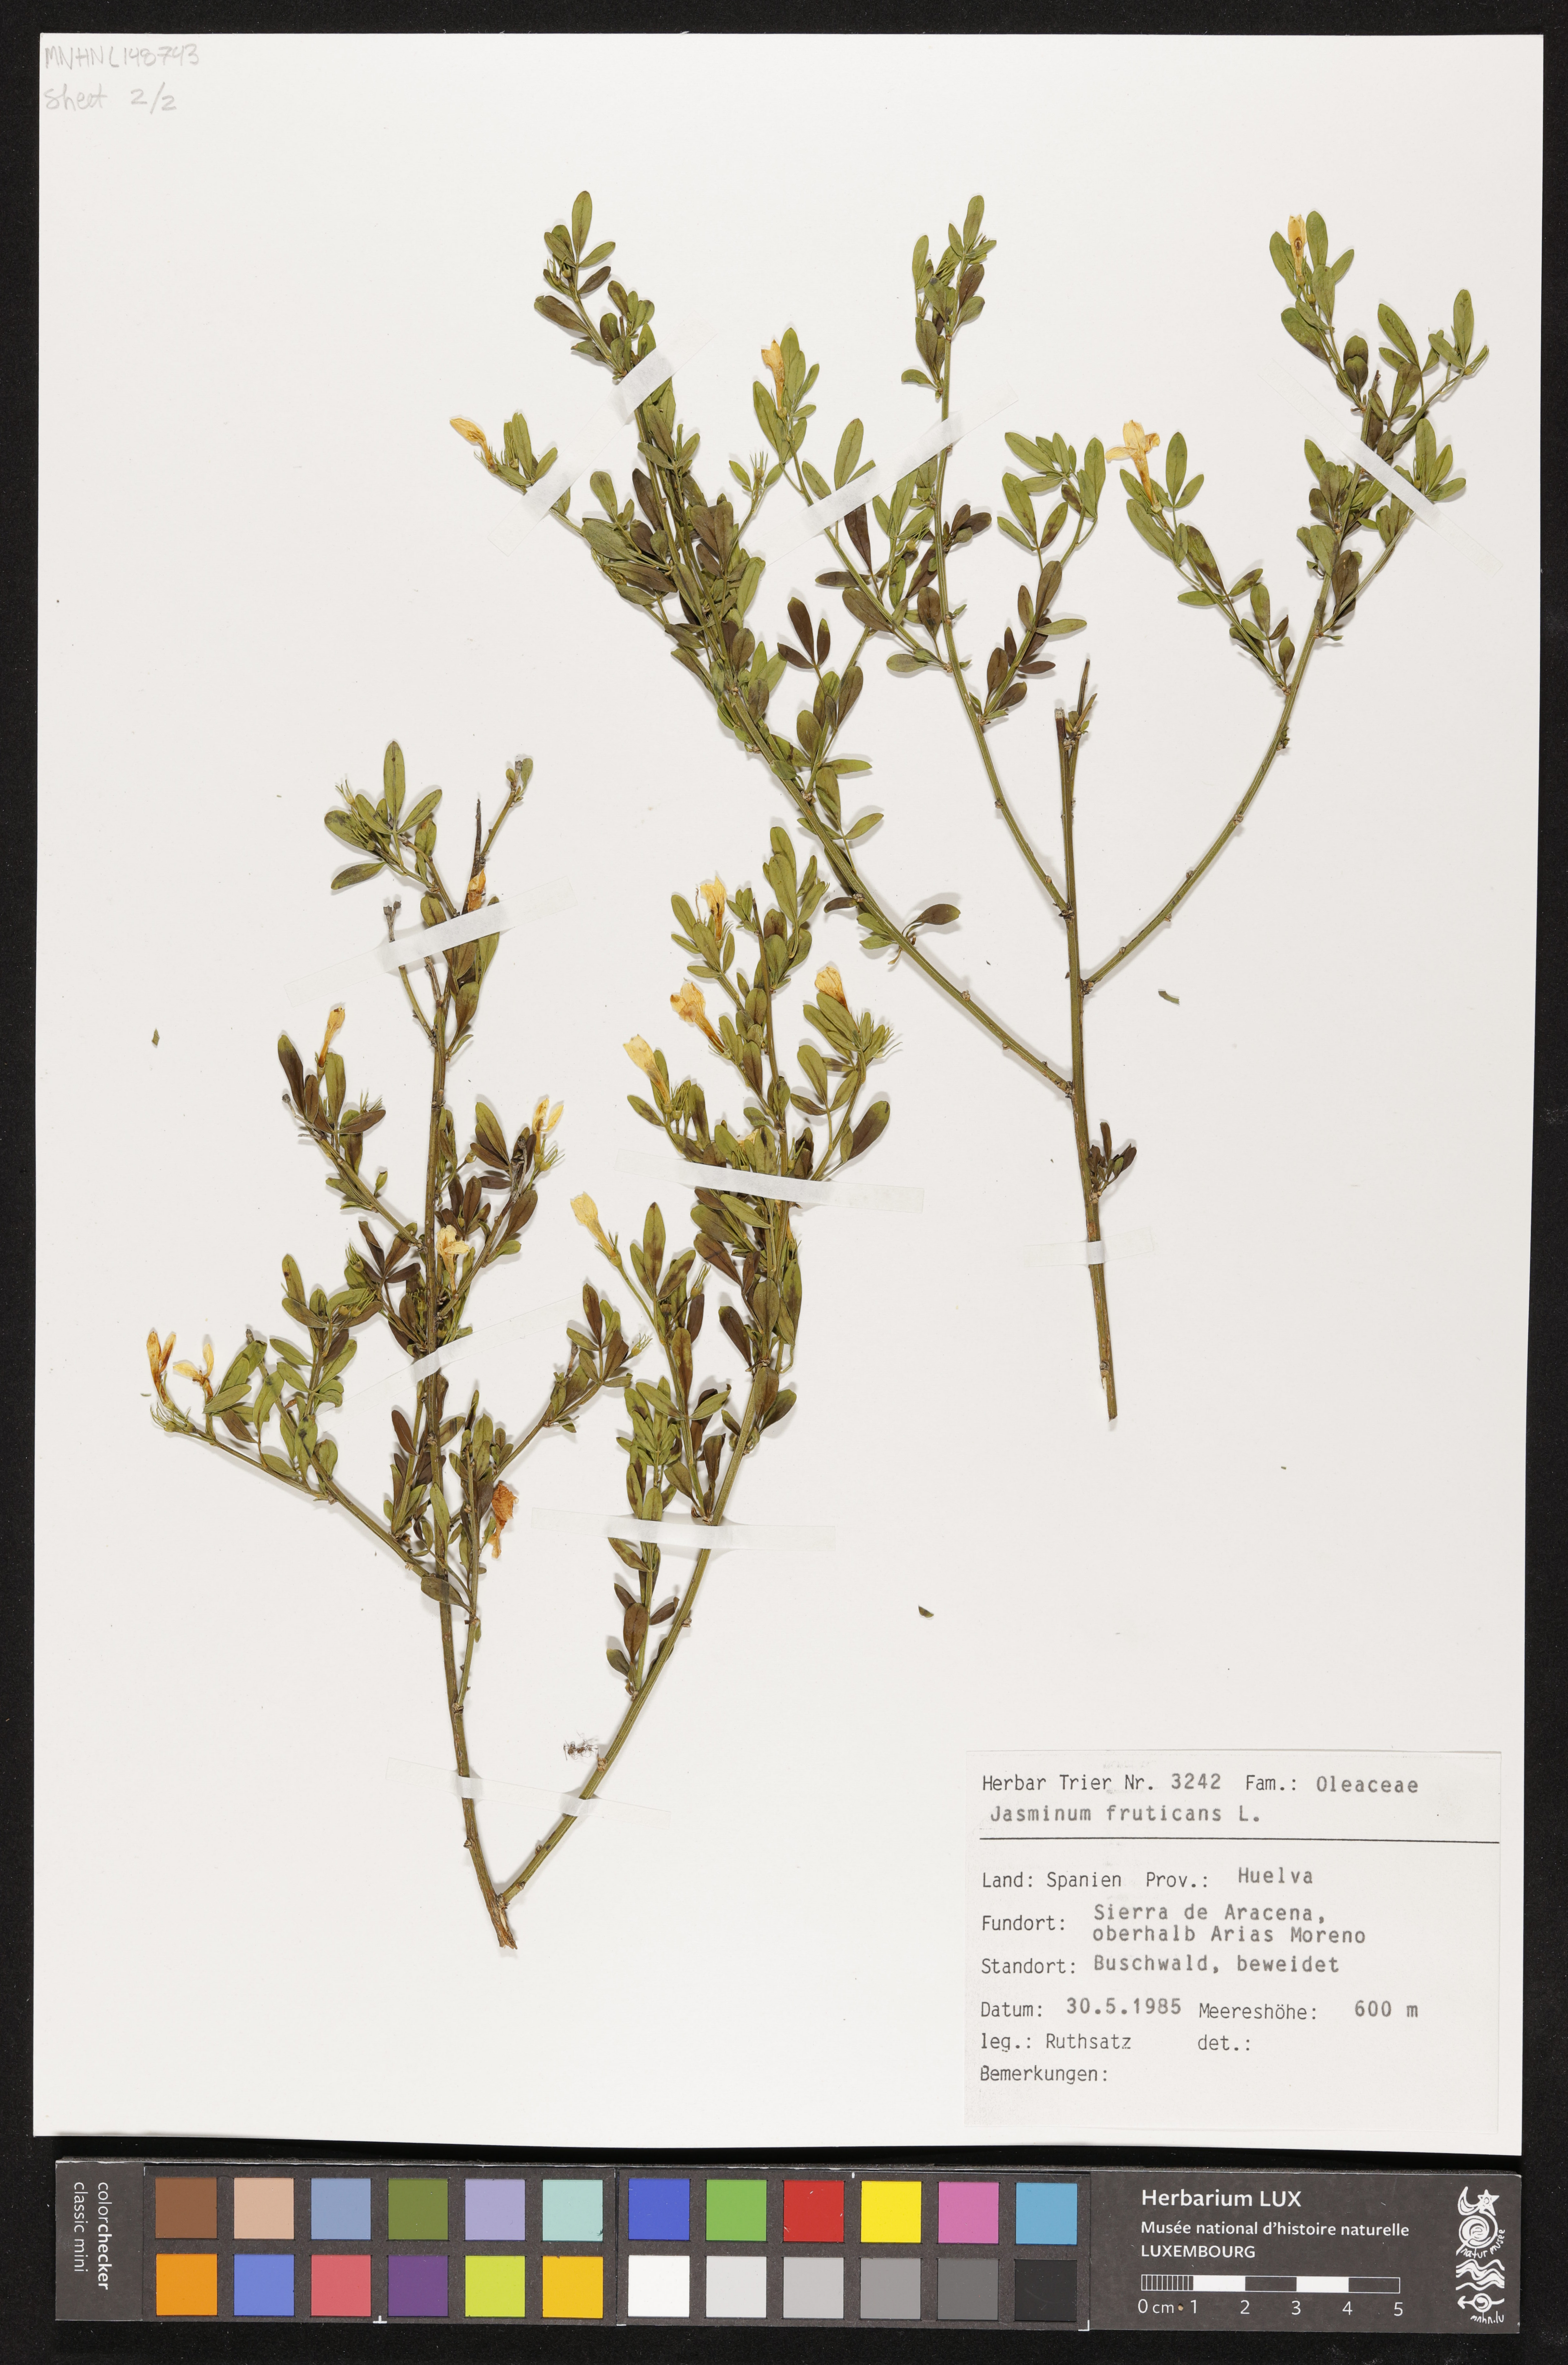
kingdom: Plantae
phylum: Tracheophyta
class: Magnoliopsida
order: Lamiales
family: Oleaceae
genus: Chrysojasminum
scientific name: Chrysojasminum fruticans
